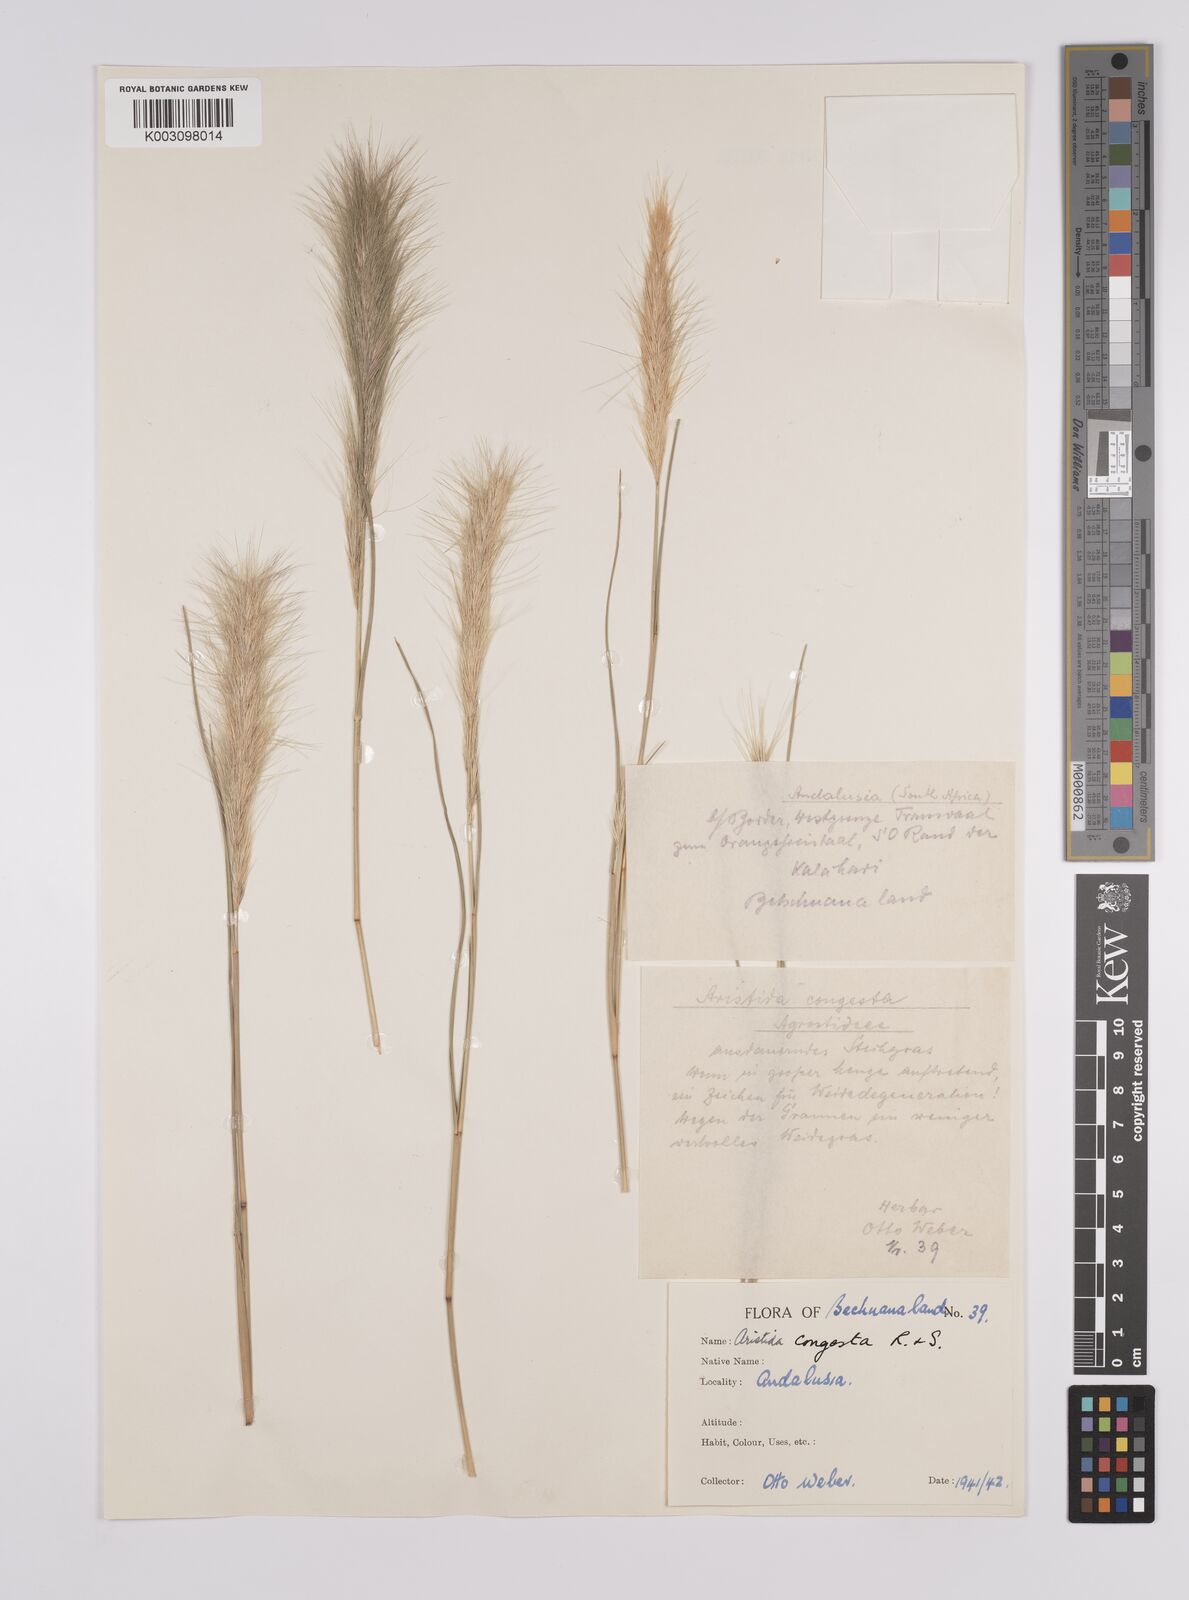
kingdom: Plantae
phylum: Tracheophyta
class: Liliopsida
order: Poales
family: Poaceae
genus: Aristida
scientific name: Aristida congesta
